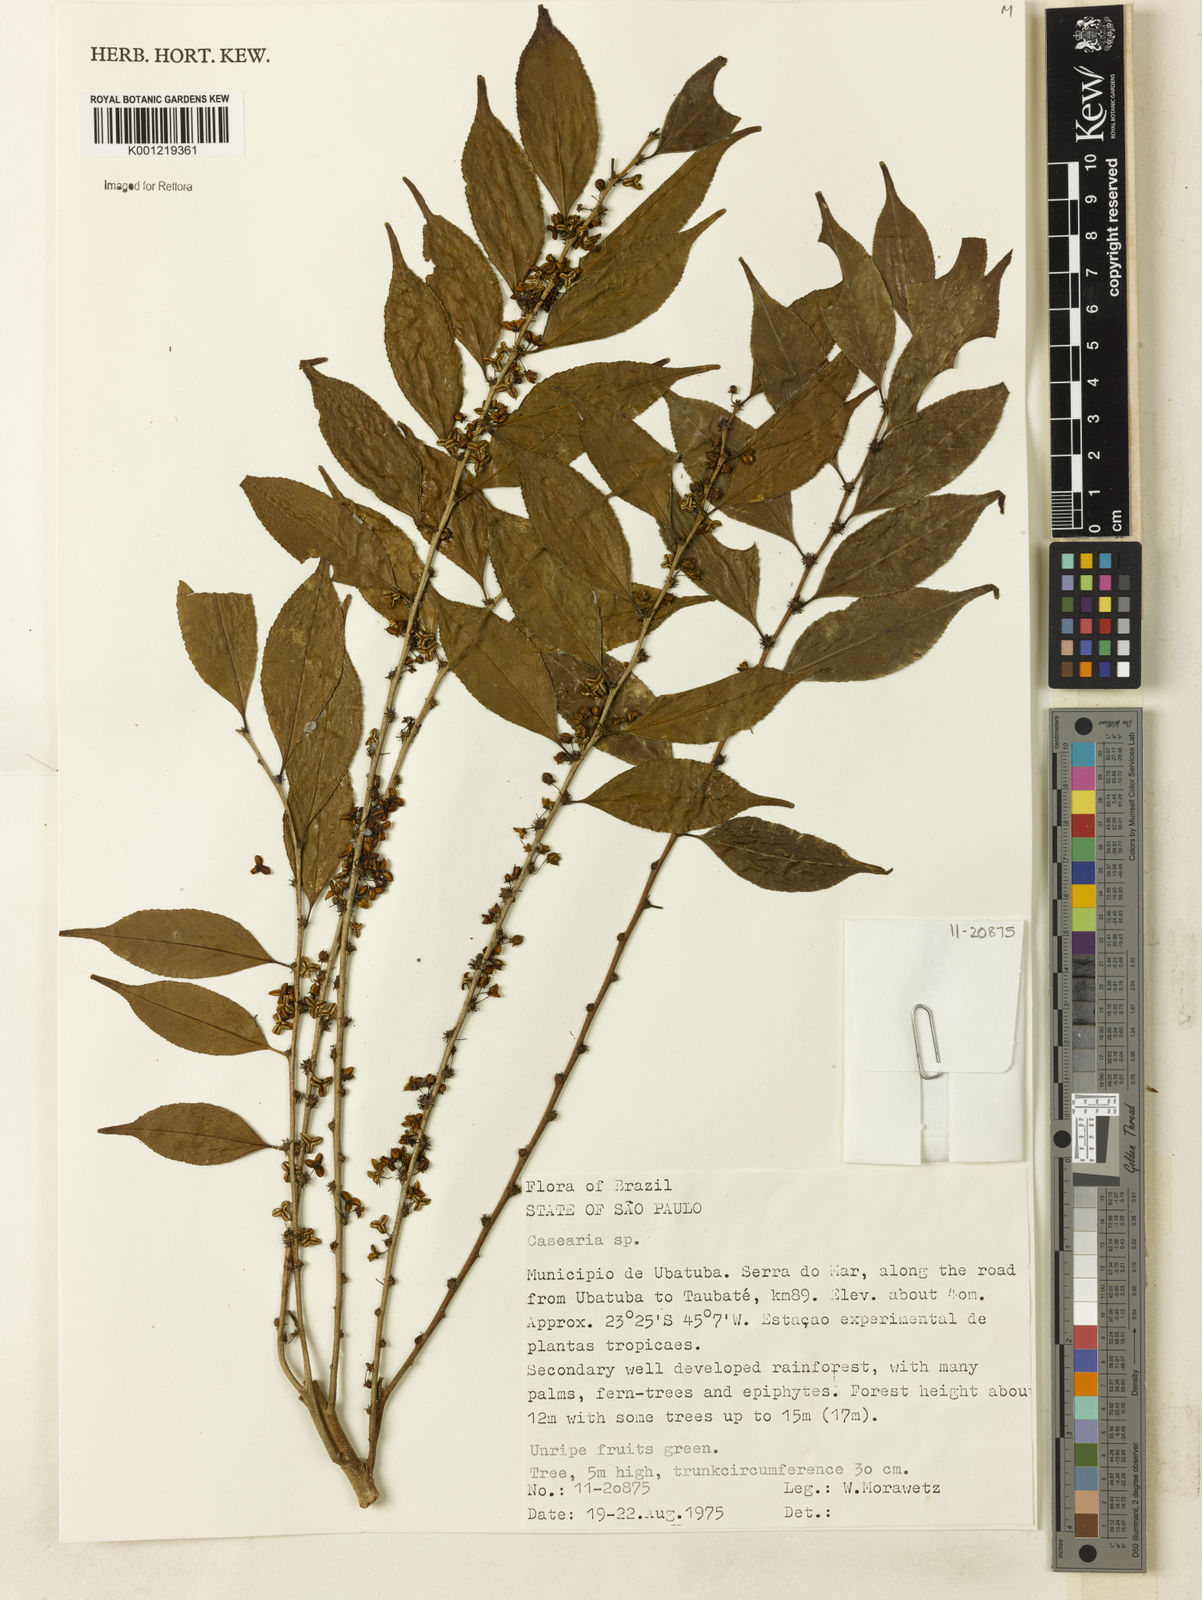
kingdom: Plantae
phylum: Tracheophyta
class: Magnoliopsida
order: Malpighiales
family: Salicaceae
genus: Casearia
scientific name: Casearia
